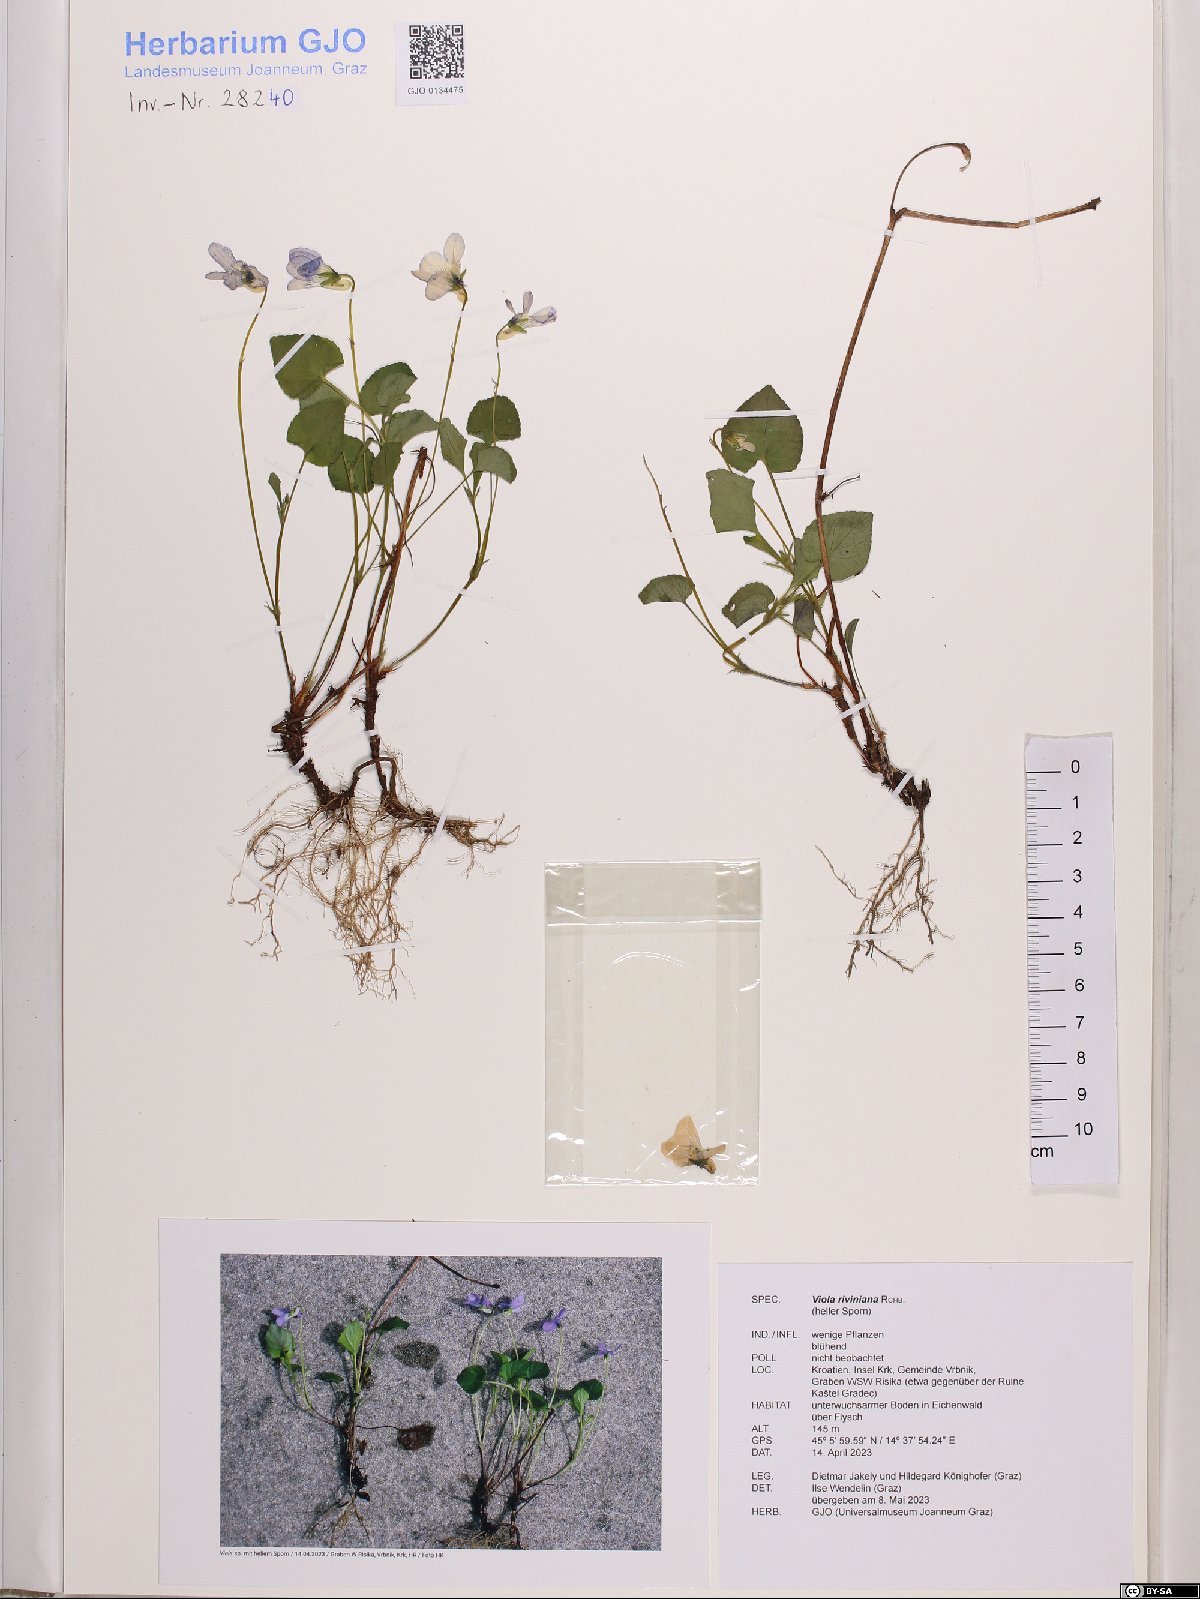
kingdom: Plantae
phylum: Tracheophyta
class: Magnoliopsida
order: Malpighiales
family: Violaceae
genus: Viola
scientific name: Viola riviniana
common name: Common dog-violet
